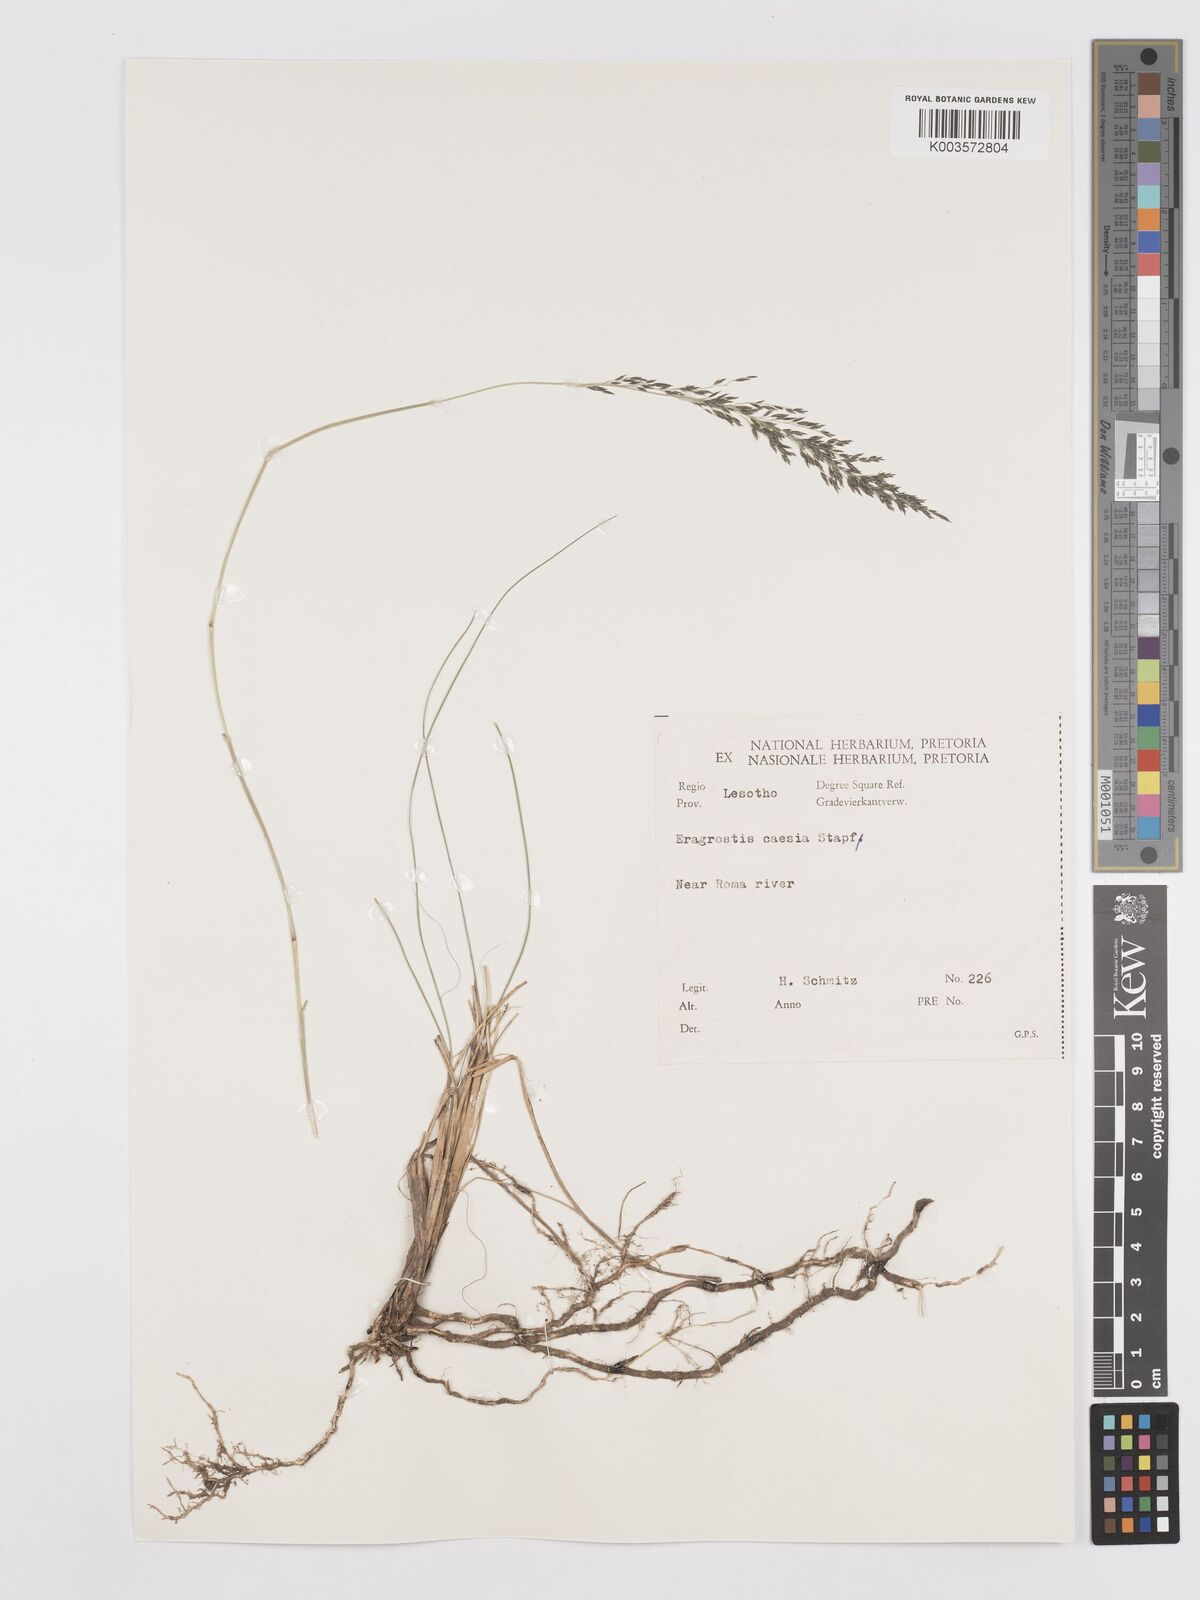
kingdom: Plantae
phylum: Tracheophyta
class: Liliopsida
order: Poales
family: Poaceae
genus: Eragrostis
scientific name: Eragrostis caesia
